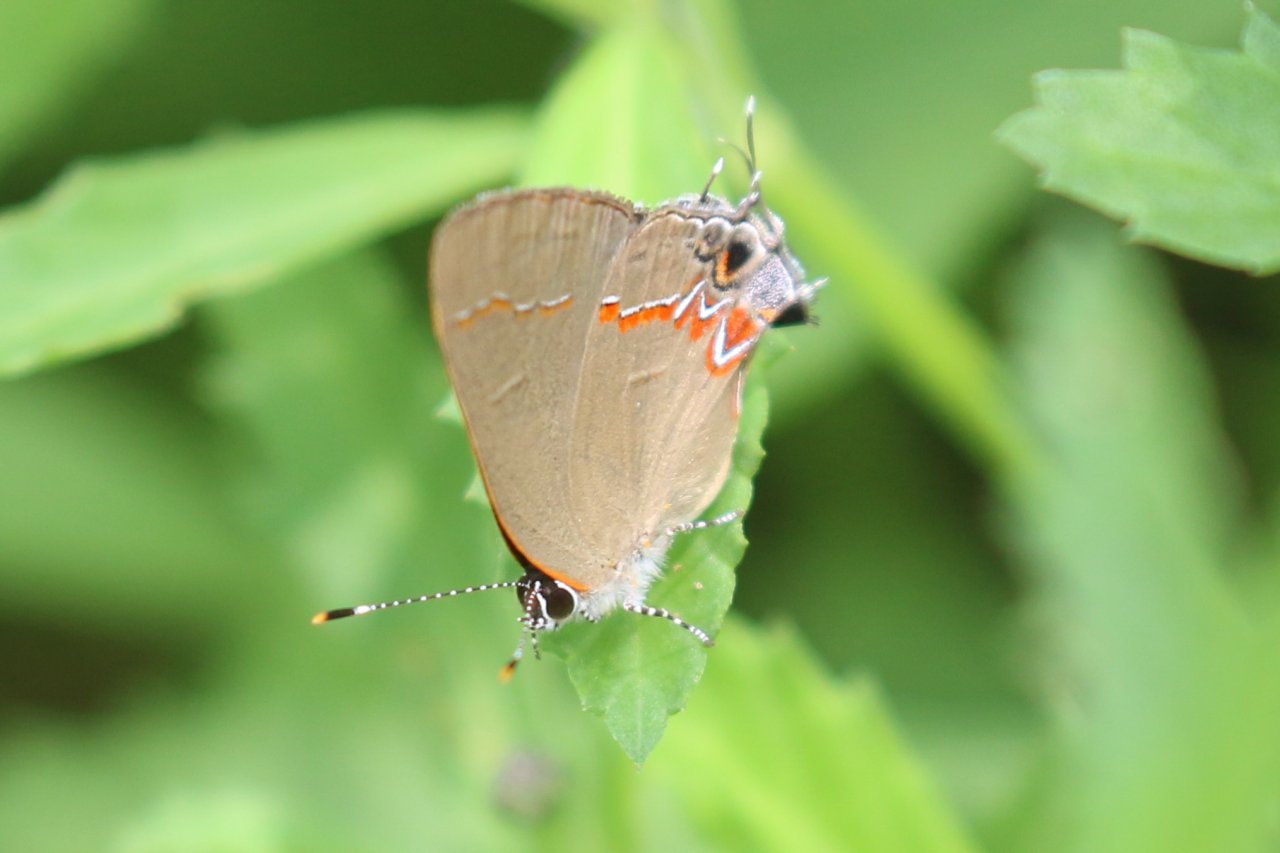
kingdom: Animalia
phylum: Arthropoda
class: Insecta
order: Lepidoptera
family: Lycaenidae
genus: Calycopis
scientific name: Calycopis isobeon
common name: Dusky-blue Groundstreak
